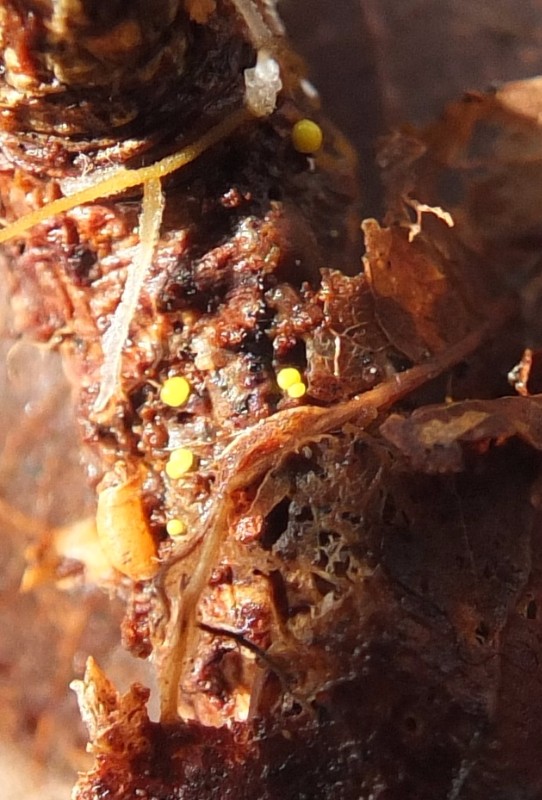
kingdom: Fungi
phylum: Ascomycota
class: Leotiomycetes
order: Helotiales
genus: Lemalis
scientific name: Lemalis aurea
